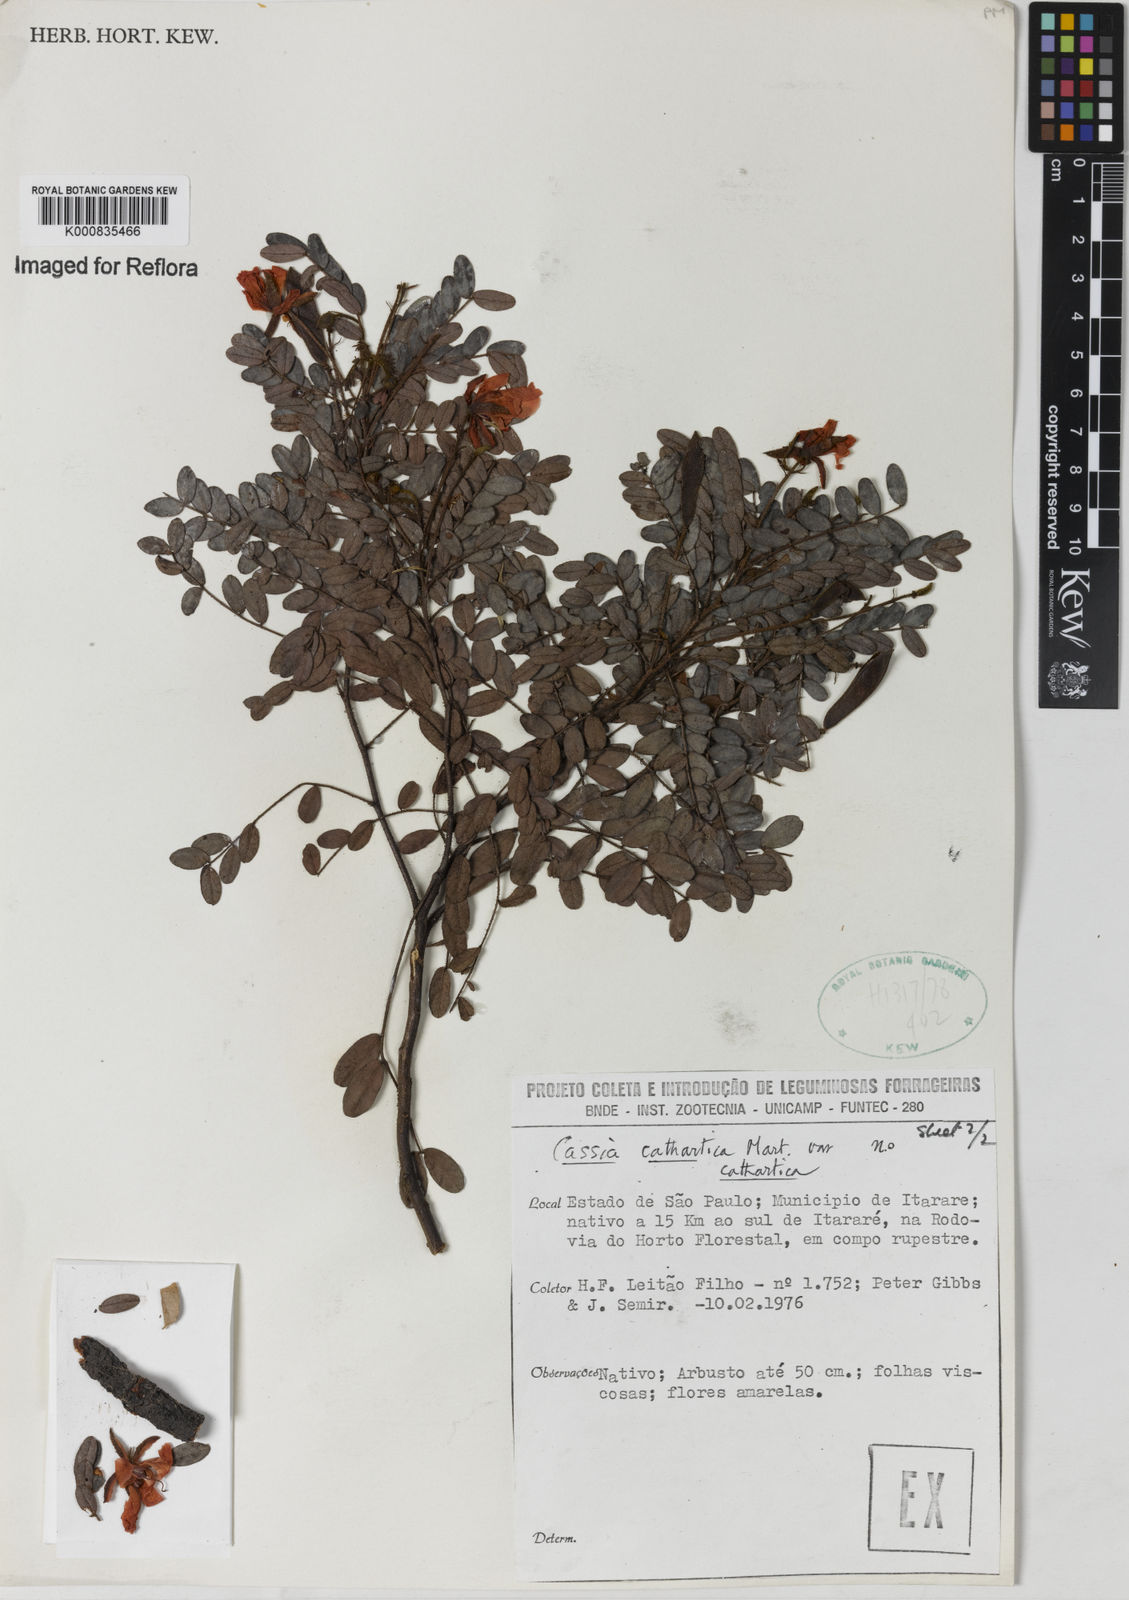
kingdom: Plantae
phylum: Tracheophyta
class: Magnoliopsida
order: Fabales
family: Fabaceae
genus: Chamaecrista
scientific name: Chamaecrista cathartica
